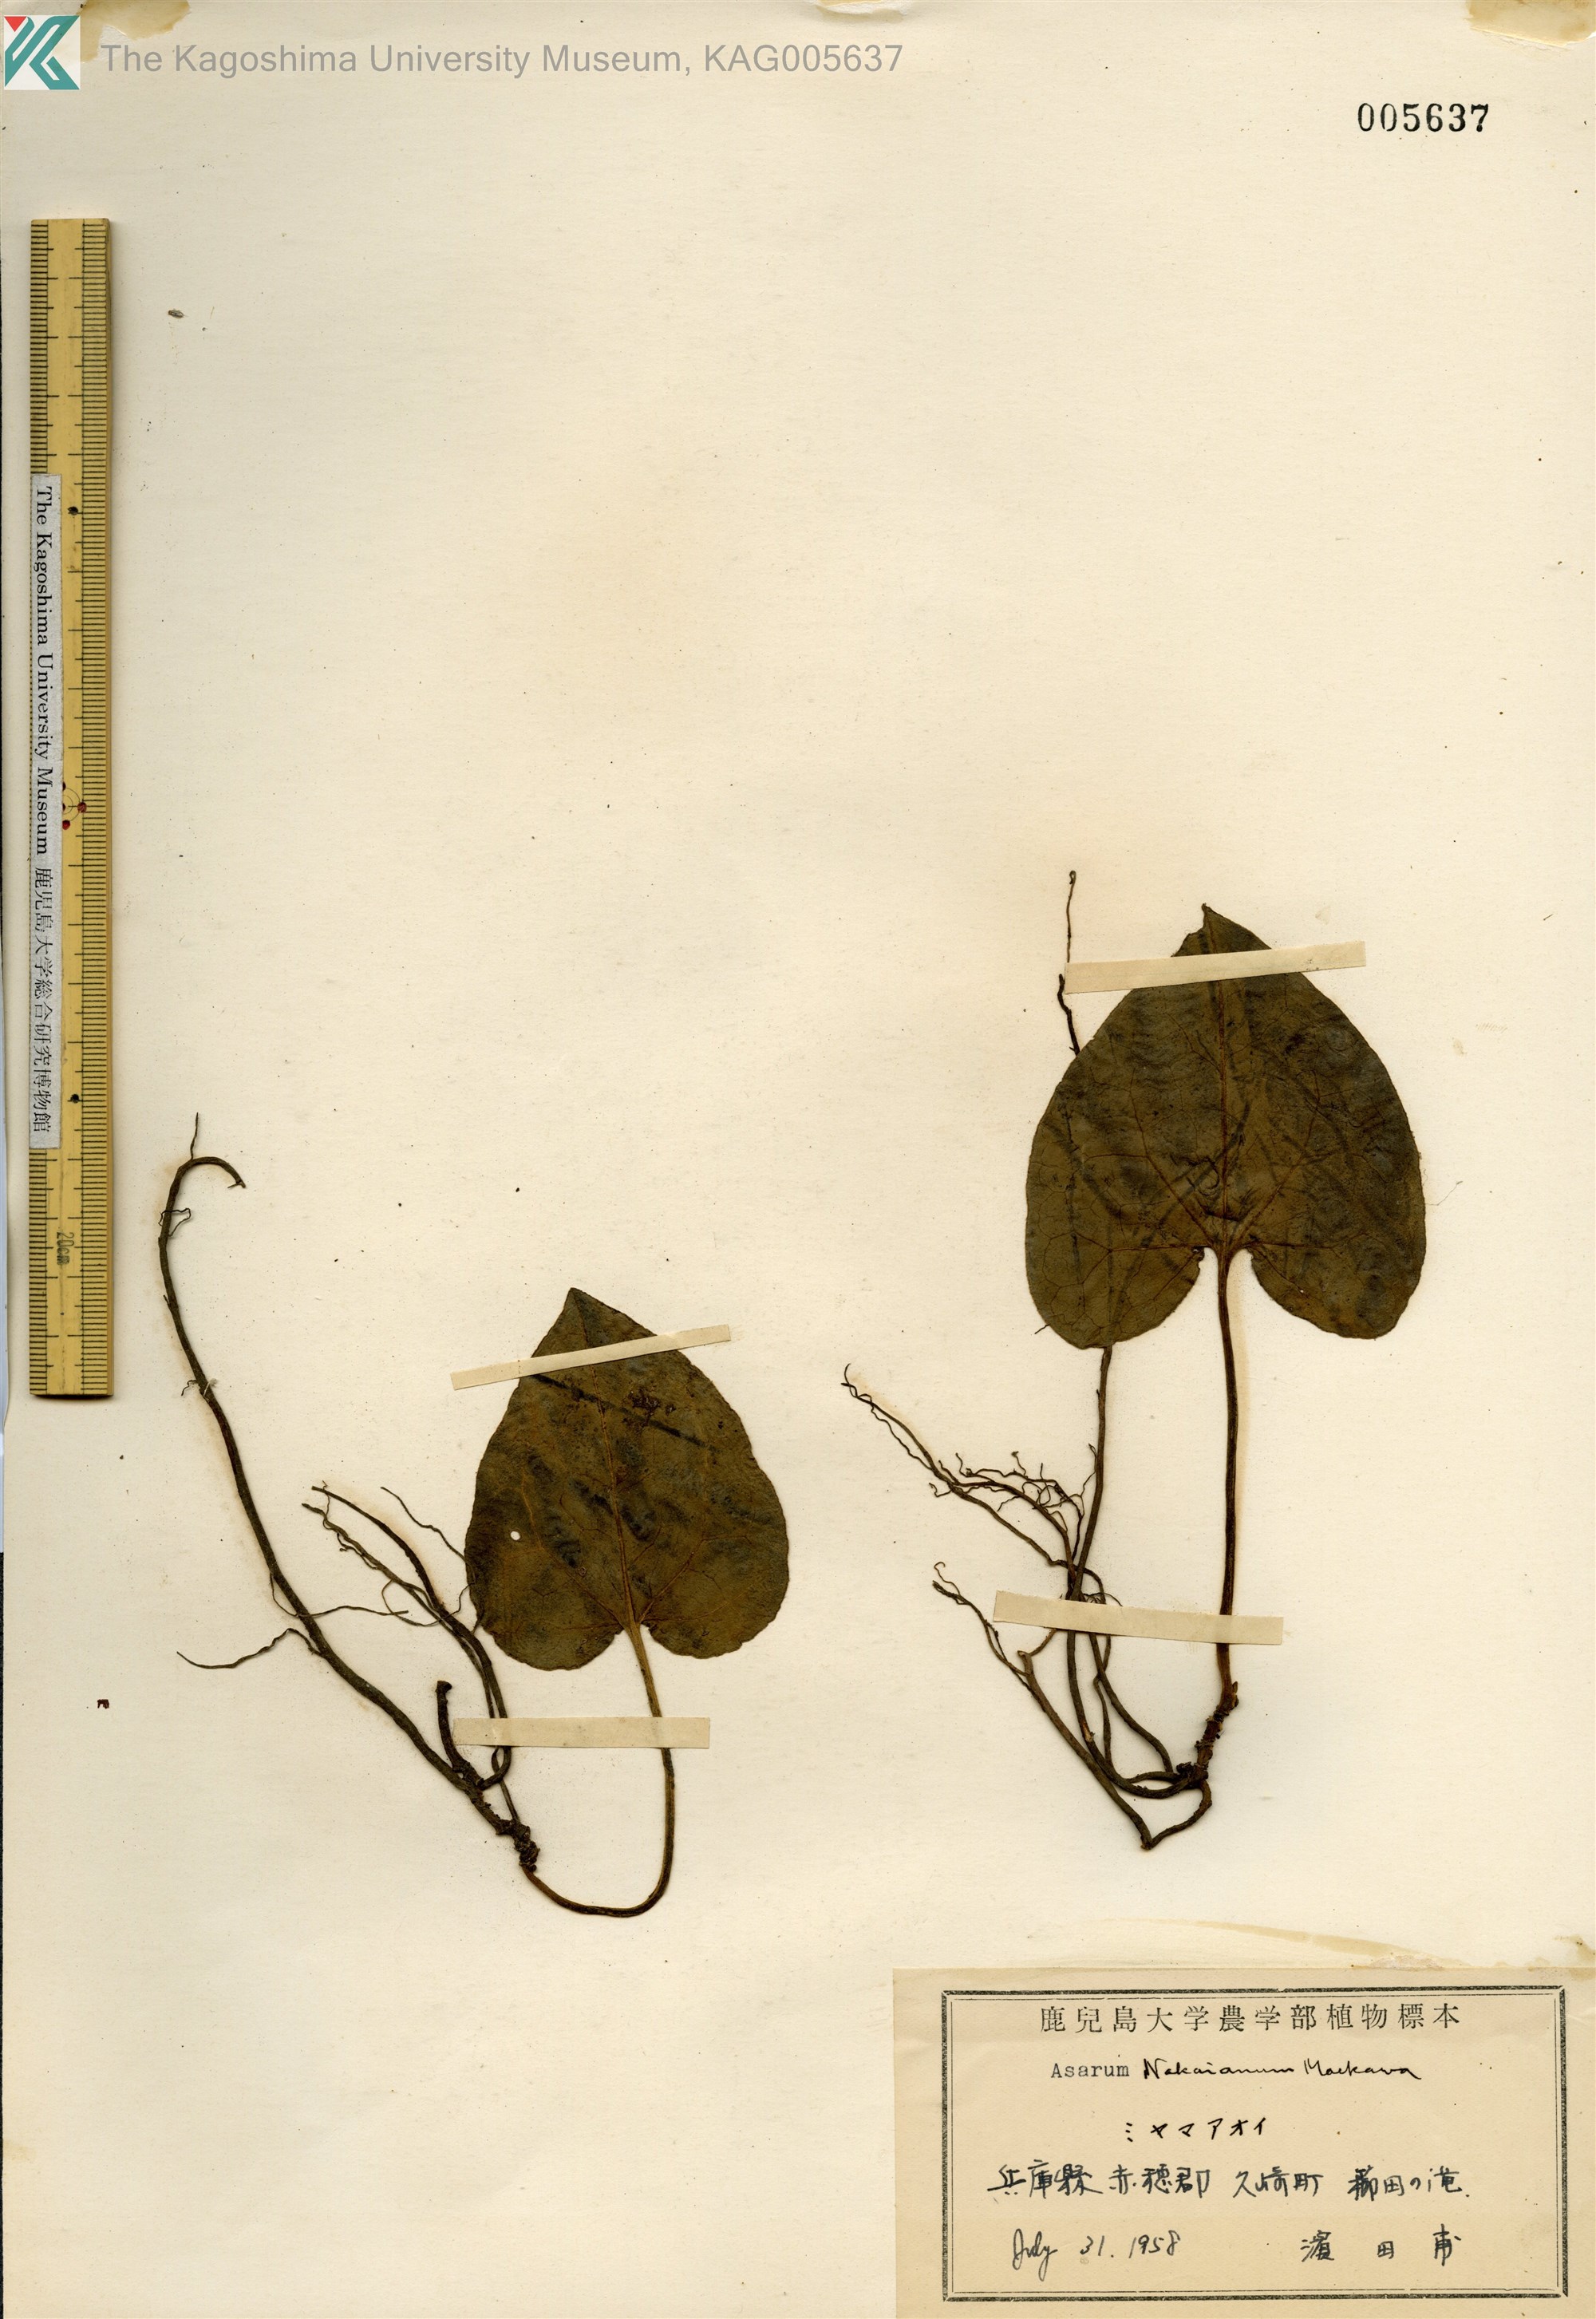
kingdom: Plantae
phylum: Tracheophyta
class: Magnoliopsida
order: Piperales
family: Aristolochiaceae
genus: Asarum
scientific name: Asarum fauriei
